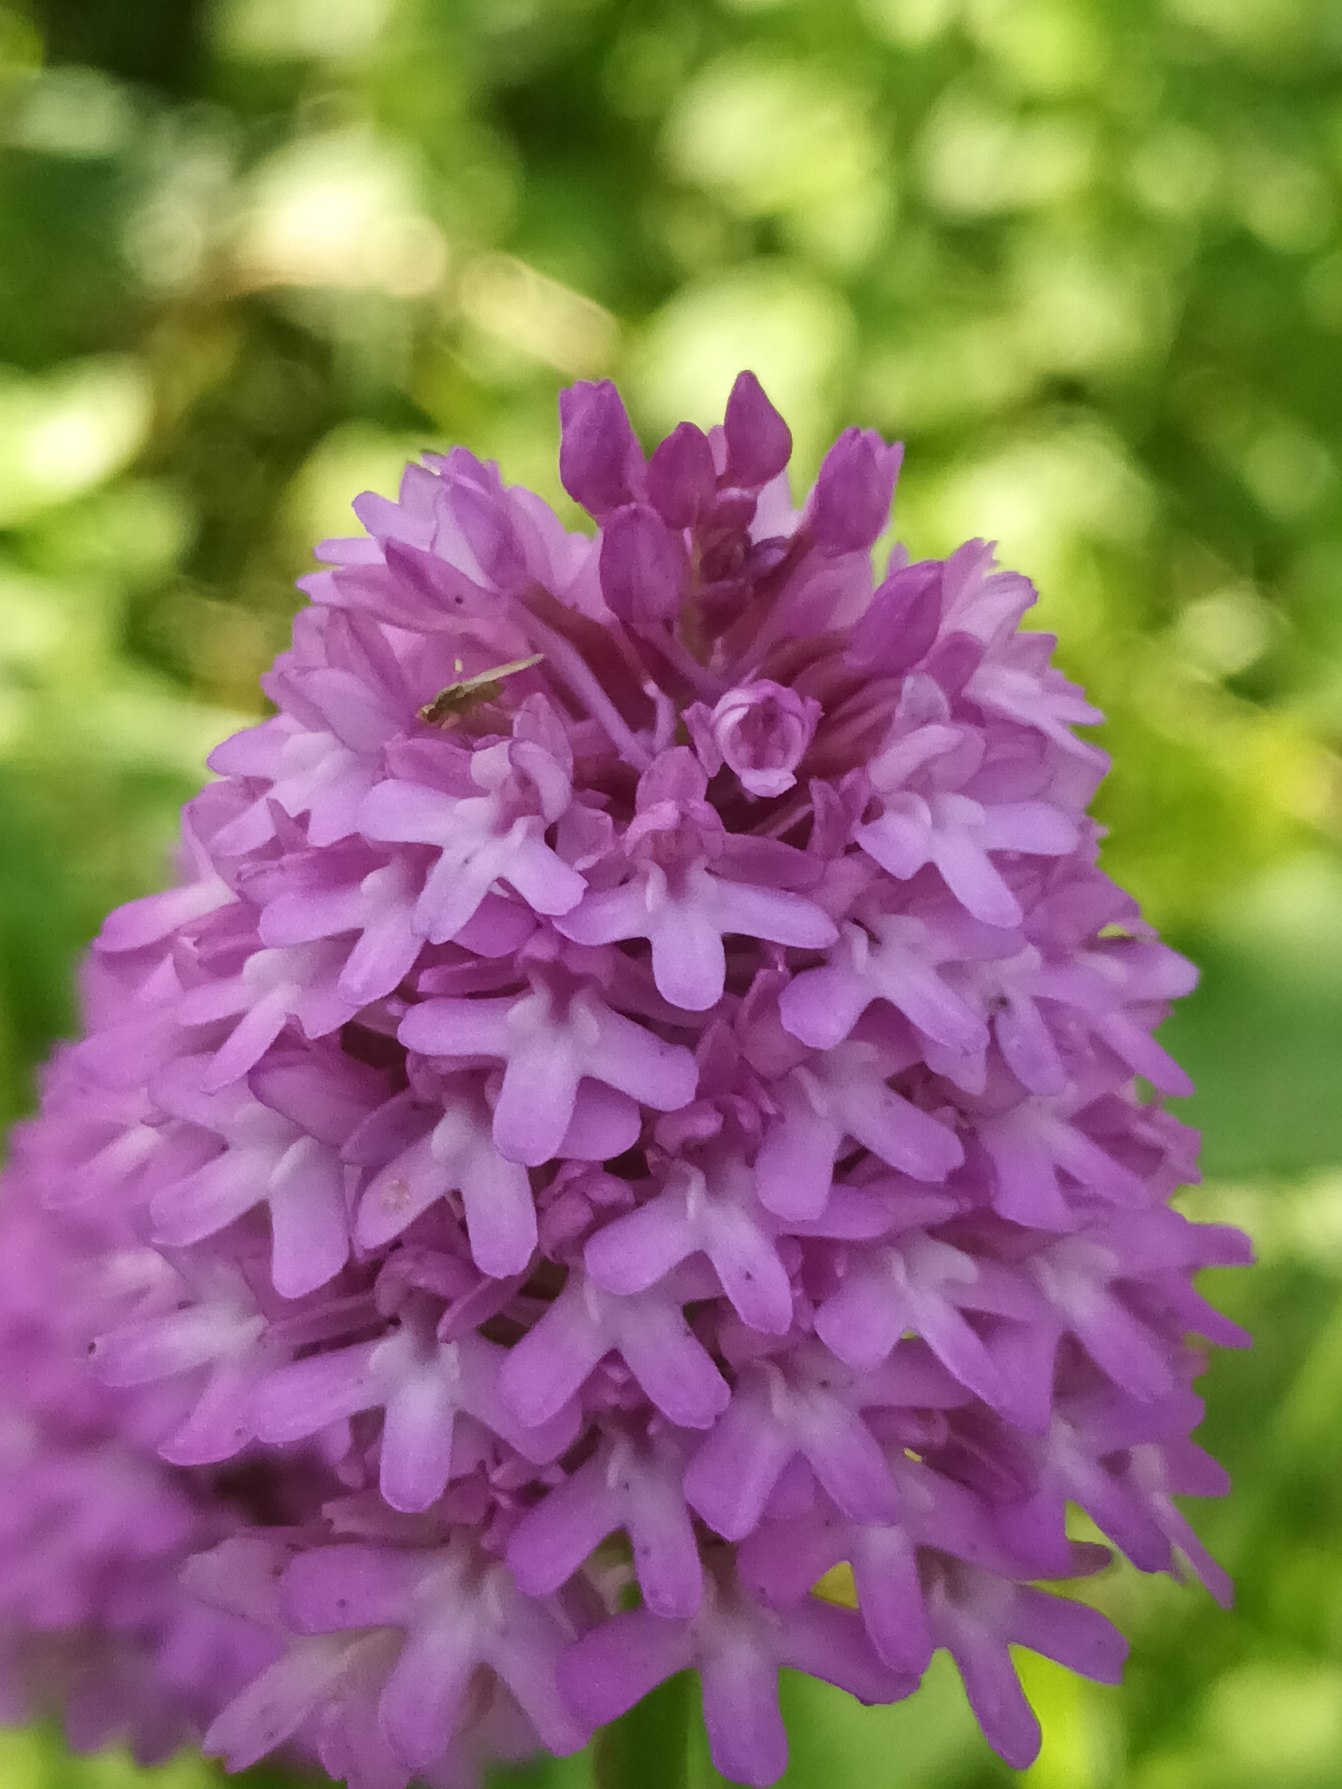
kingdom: Plantae
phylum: Tracheophyta
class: Liliopsida
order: Asparagales
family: Orchidaceae
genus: Anacamptis
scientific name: Anacamptis pyramidalis
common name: Horndrager
